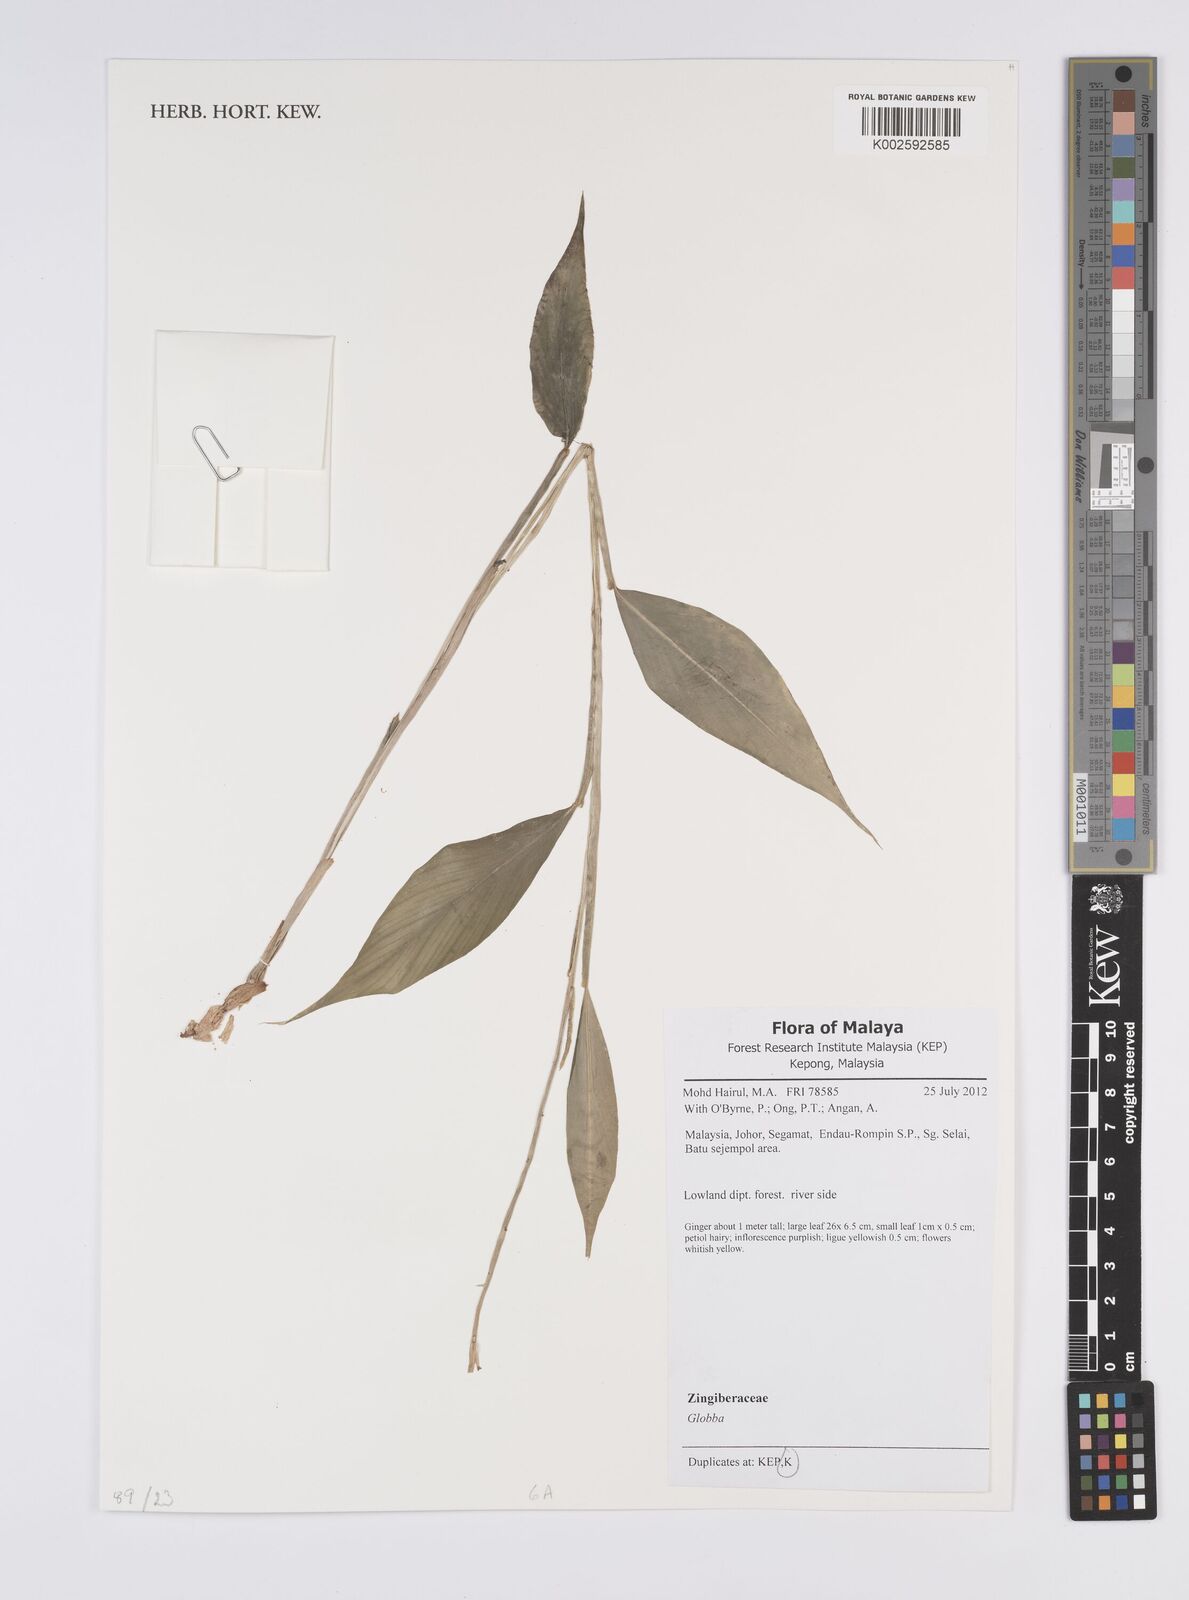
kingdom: Plantae
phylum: Tracheophyta
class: Liliopsida
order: Zingiberales
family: Zingiberaceae
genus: Globba
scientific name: Globba
